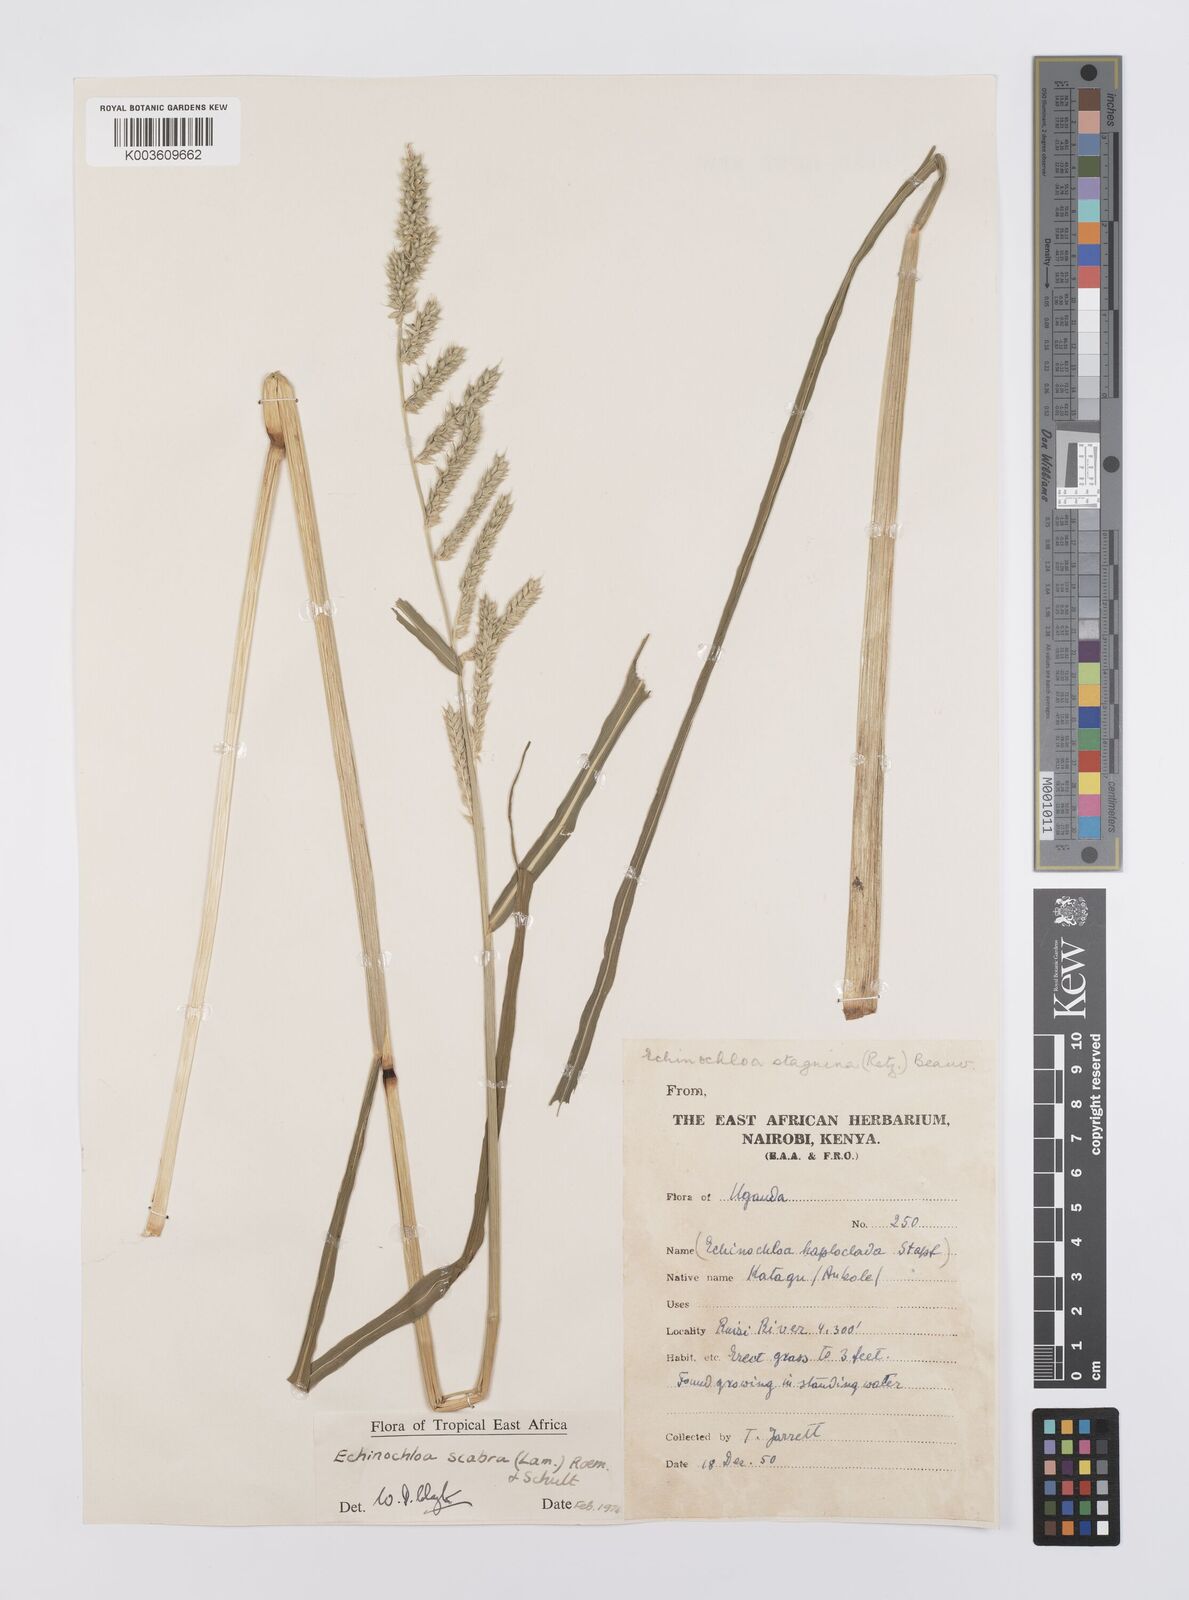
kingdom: Plantae
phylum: Tracheophyta
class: Liliopsida
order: Poales
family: Poaceae
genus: Echinochloa
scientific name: Echinochloa stagnina
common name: Burgu grass
